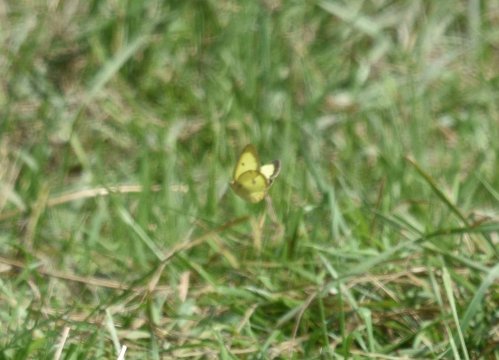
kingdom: Animalia
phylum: Arthropoda
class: Insecta
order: Lepidoptera
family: Pieridae
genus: Colias
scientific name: Colias philodice
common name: Clouded Sulphur
